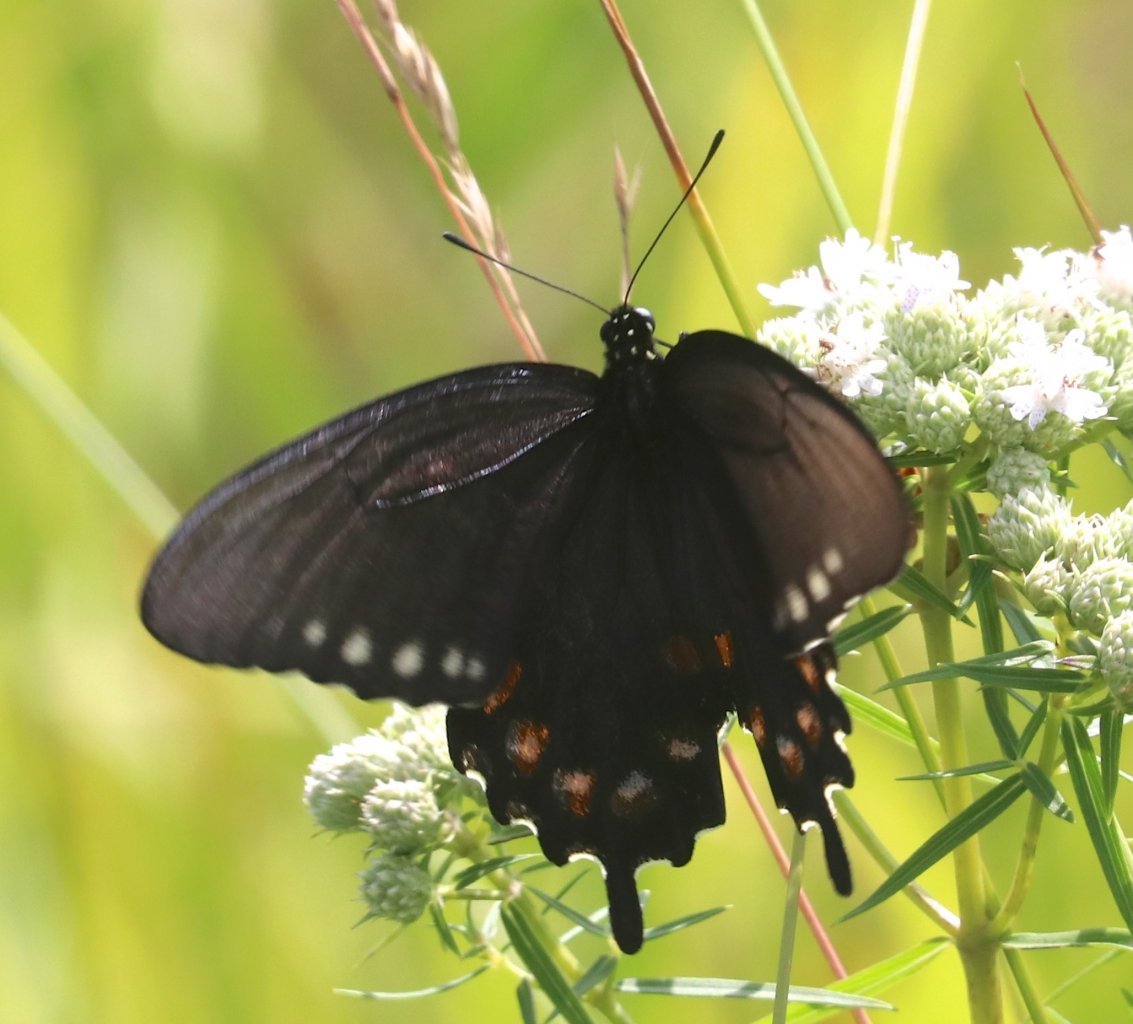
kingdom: Animalia
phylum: Arthropoda
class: Insecta
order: Lepidoptera
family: Papilionidae
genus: Battus
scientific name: Battus philenor
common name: Pipevine Swallowtail
